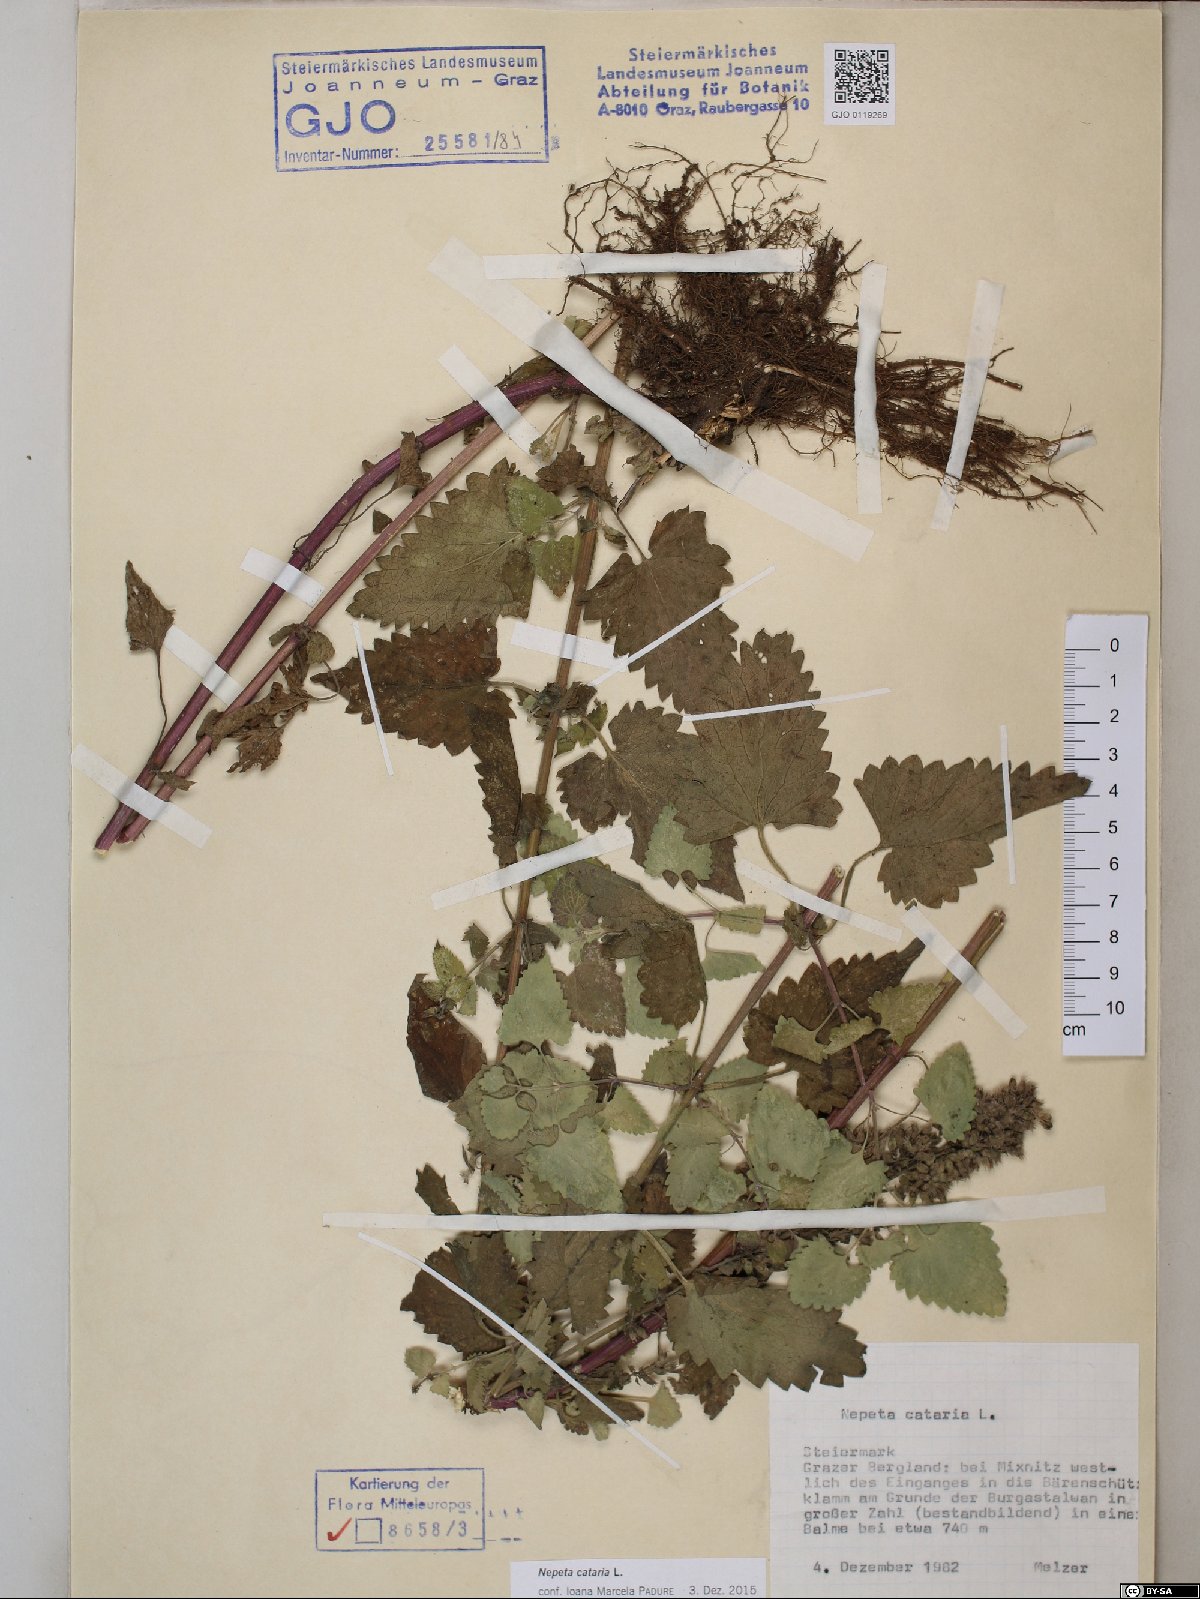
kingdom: Plantae
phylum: Tracheophyta
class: Magnoliopsida
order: Lamiales
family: Lamiaceae
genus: Nepeta
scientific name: Nepeta cataria
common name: Catnip
